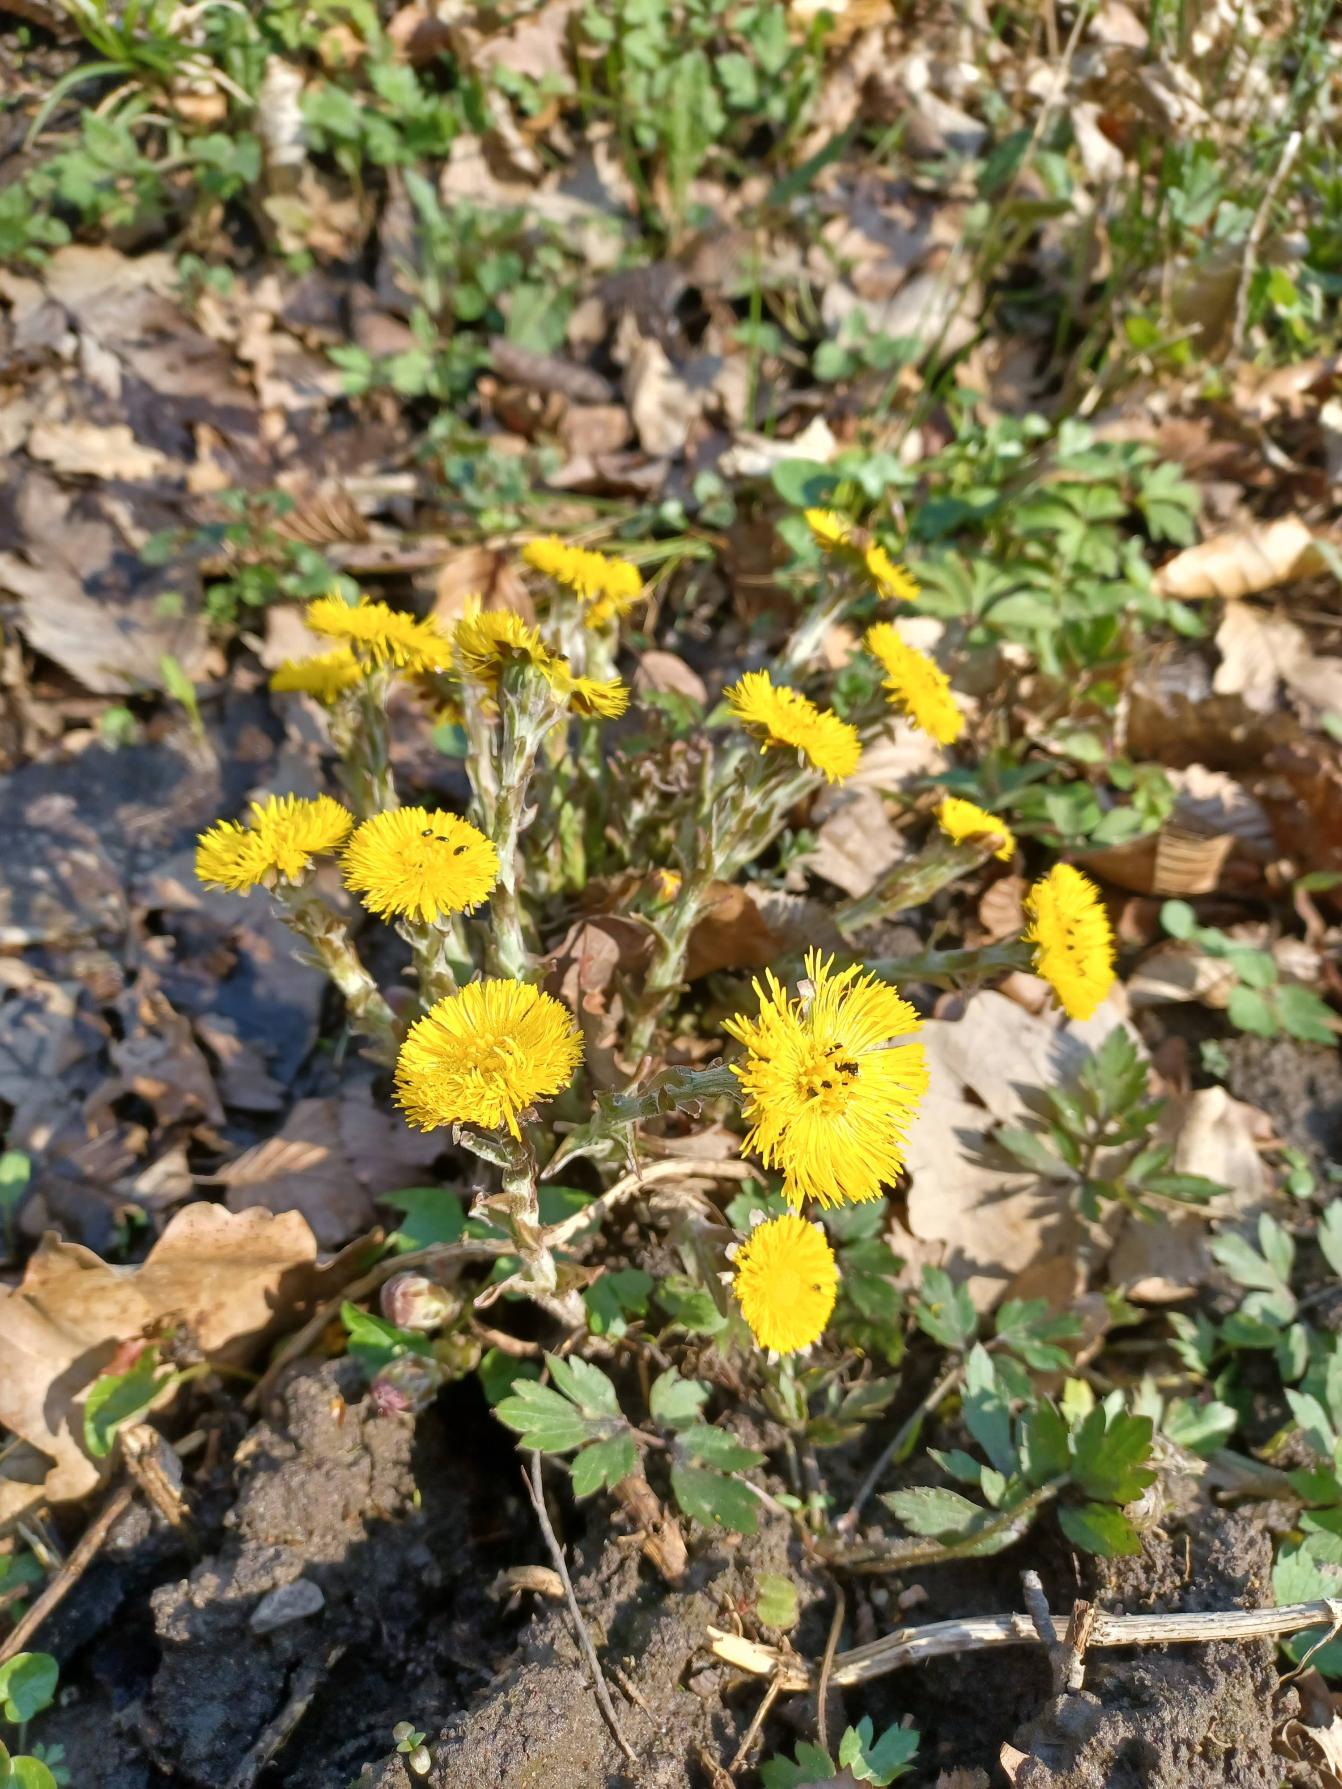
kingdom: Plantae
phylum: Tracheophyta
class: Magnoliopsida
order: Asterales
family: Asteraceae
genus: Tussilago
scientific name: Tussilago farfara
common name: Følfod
